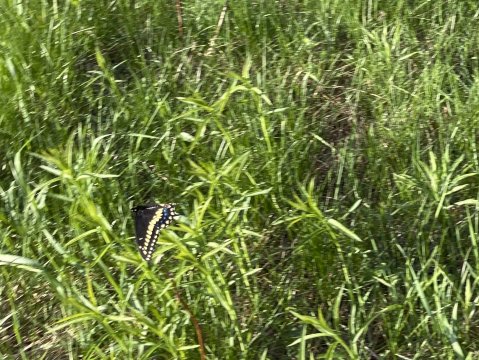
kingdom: Animalia
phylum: Arthropoda
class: Insecta
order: Lepidoptera
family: Papilionidae
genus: Papilio
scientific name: Papilio polyxenes
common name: Black Swallowtail
